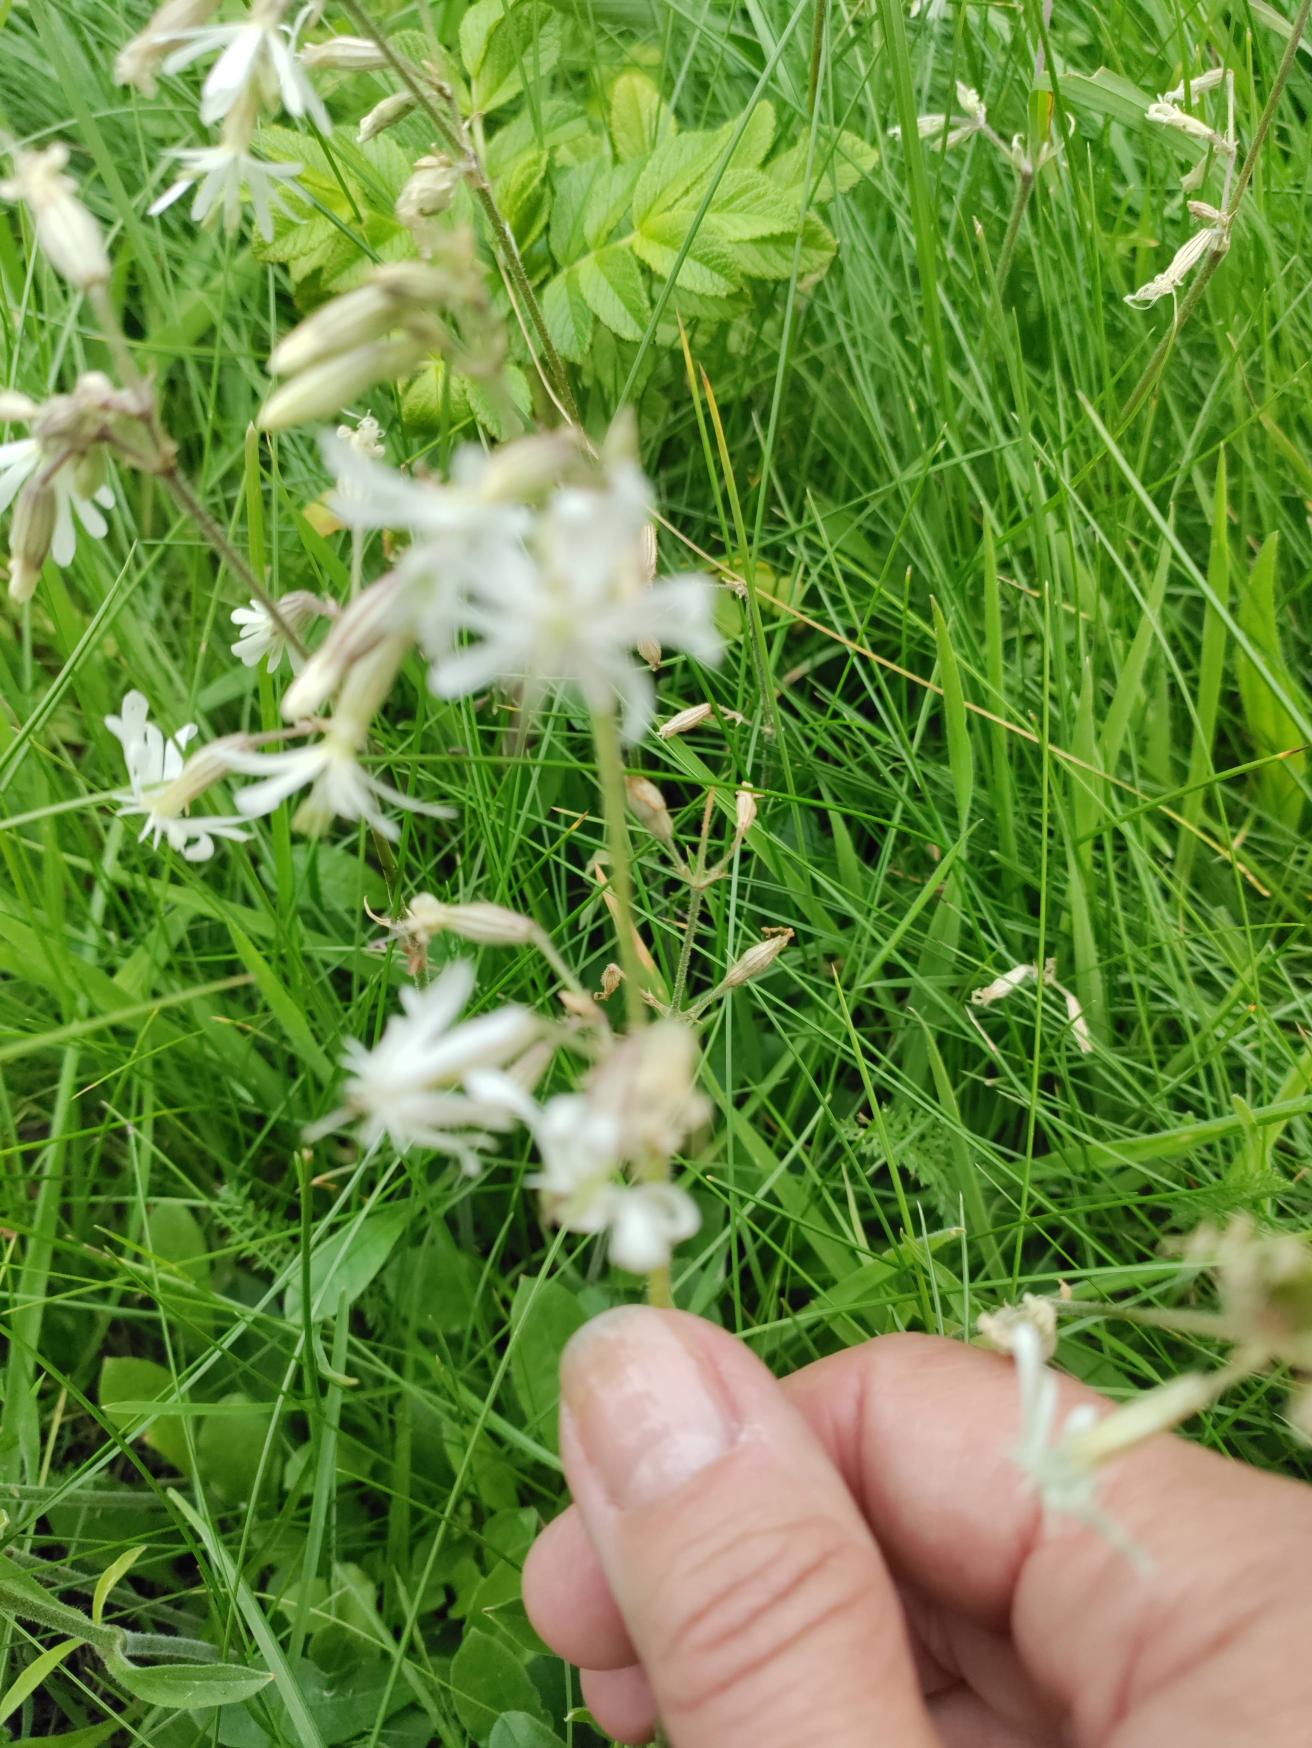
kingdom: Plantae
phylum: Tracheophyta
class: Magnoliopsida
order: Caryophyllales
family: Caryophyllaceae
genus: Silene
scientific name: Silene nutans
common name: Nikkende limurt
